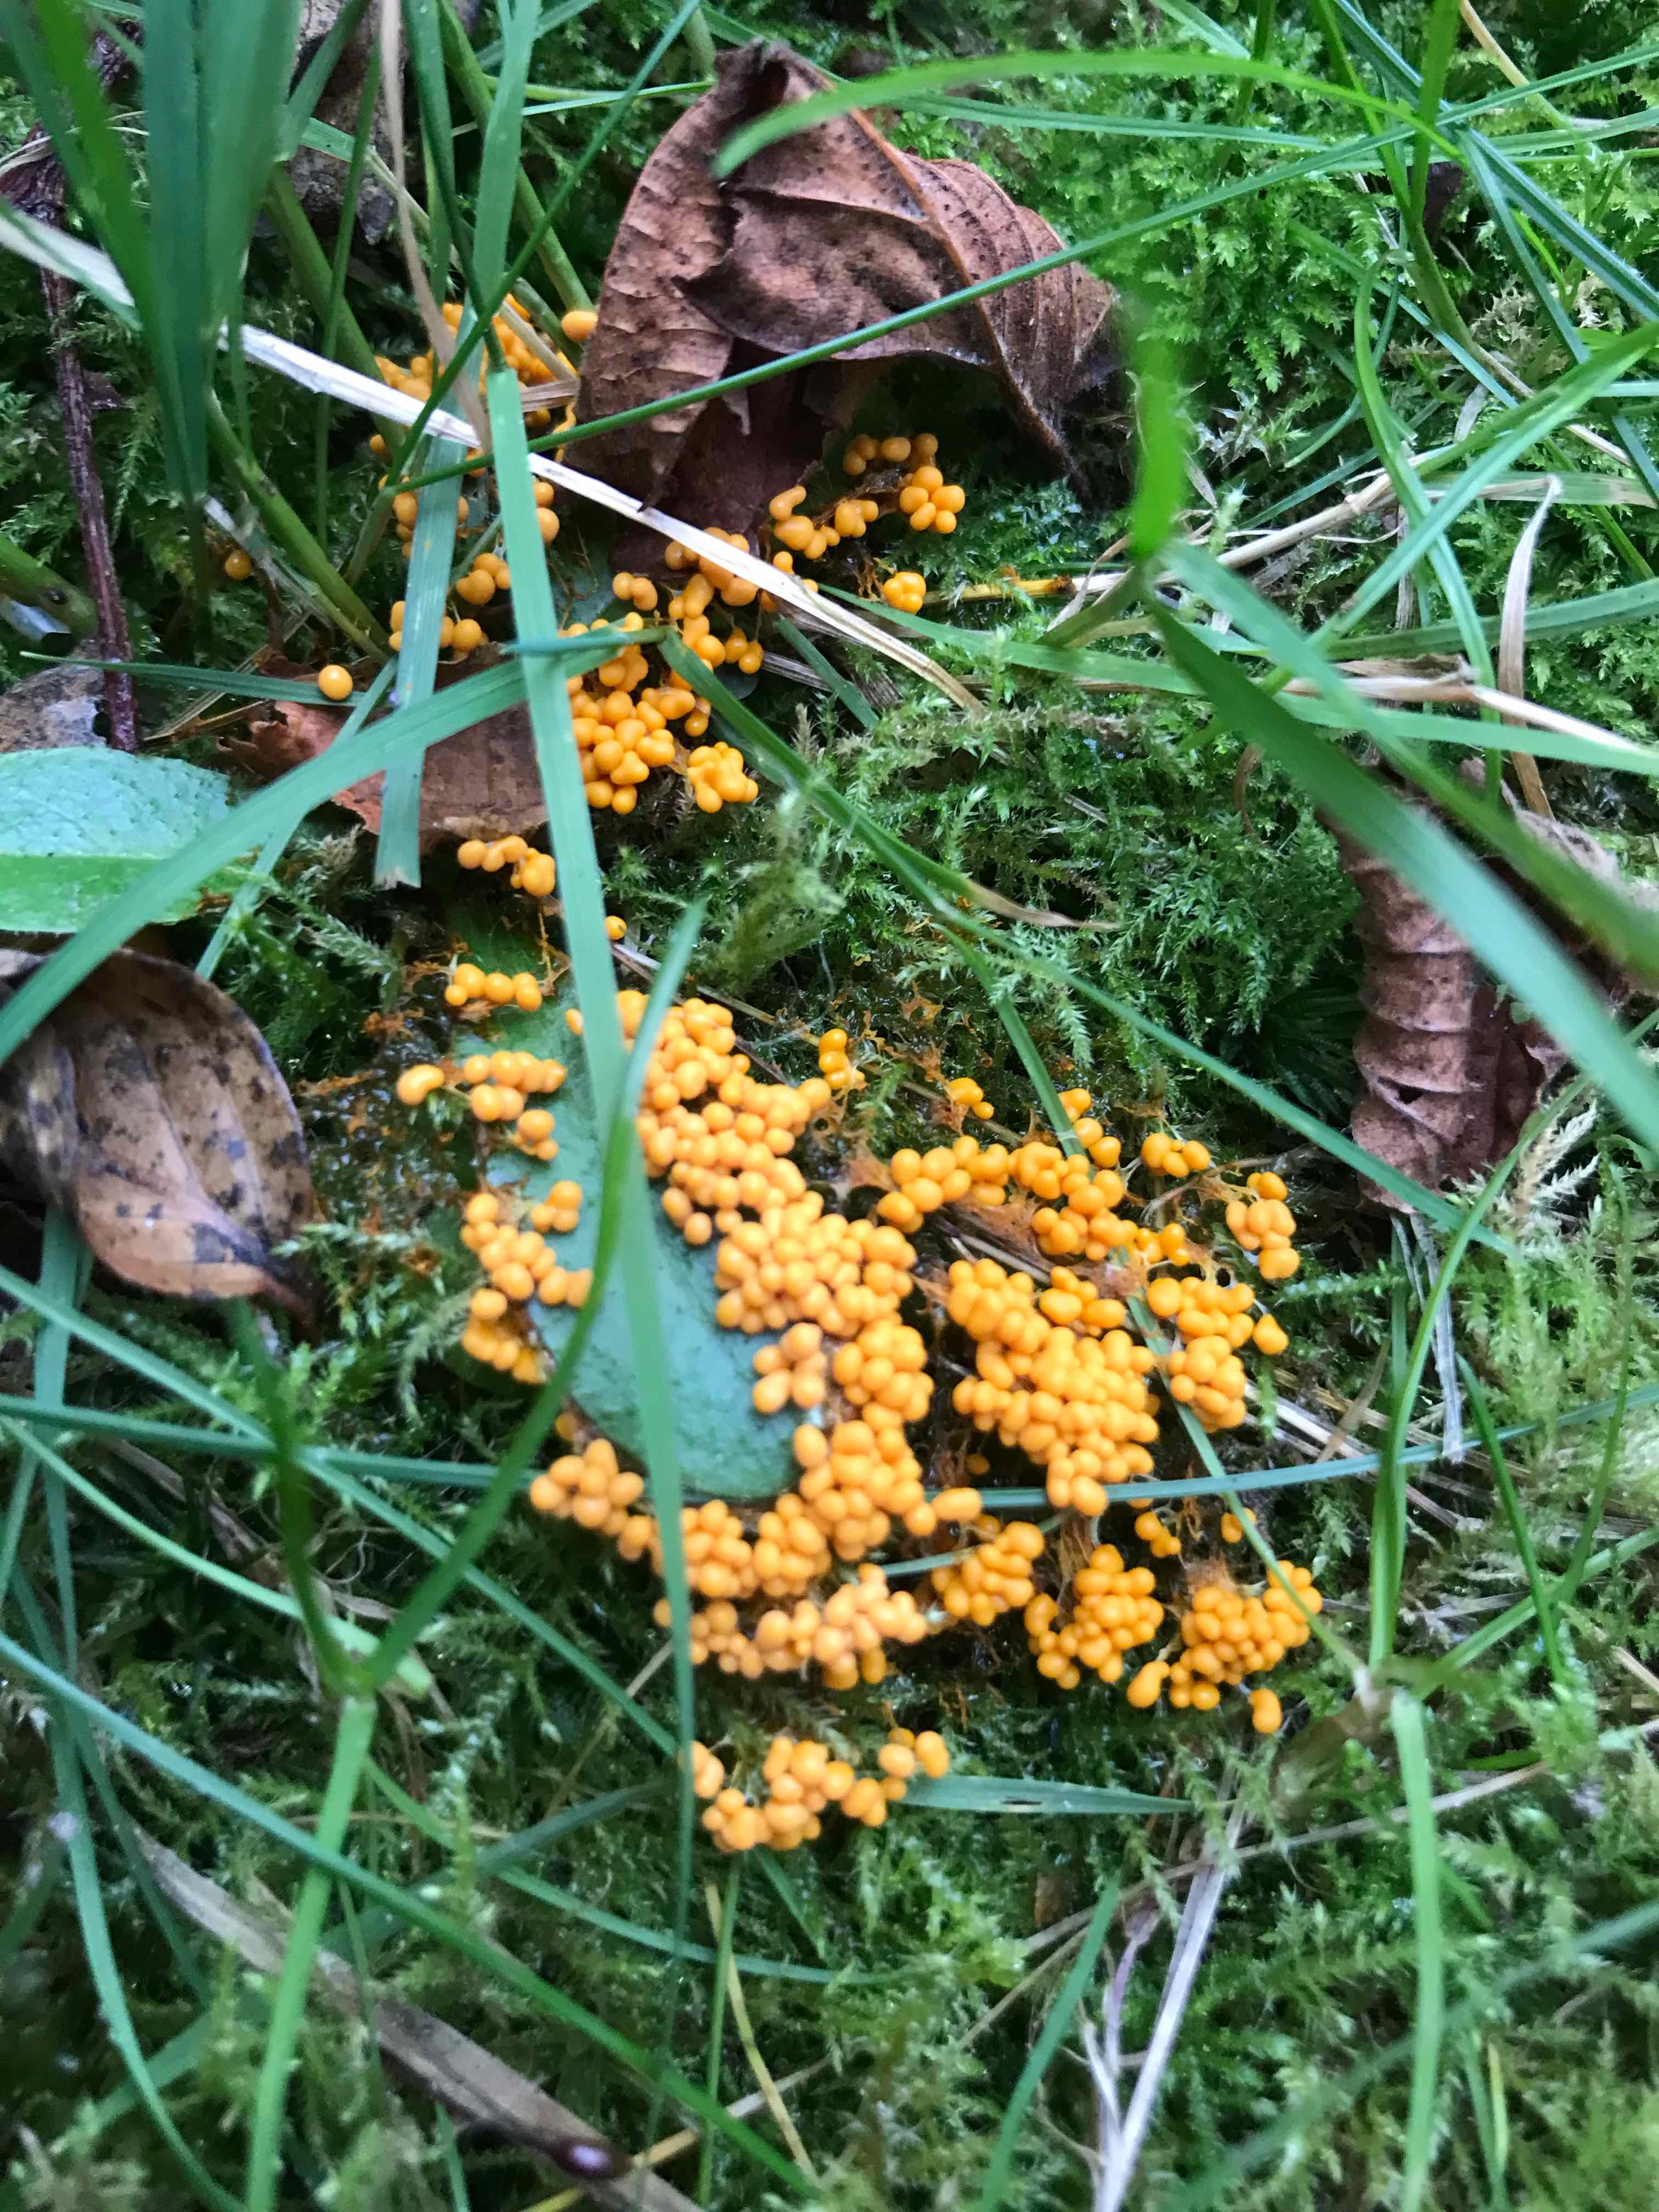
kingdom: Protozoa
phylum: Mycetozoa
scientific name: Mycetozoa
